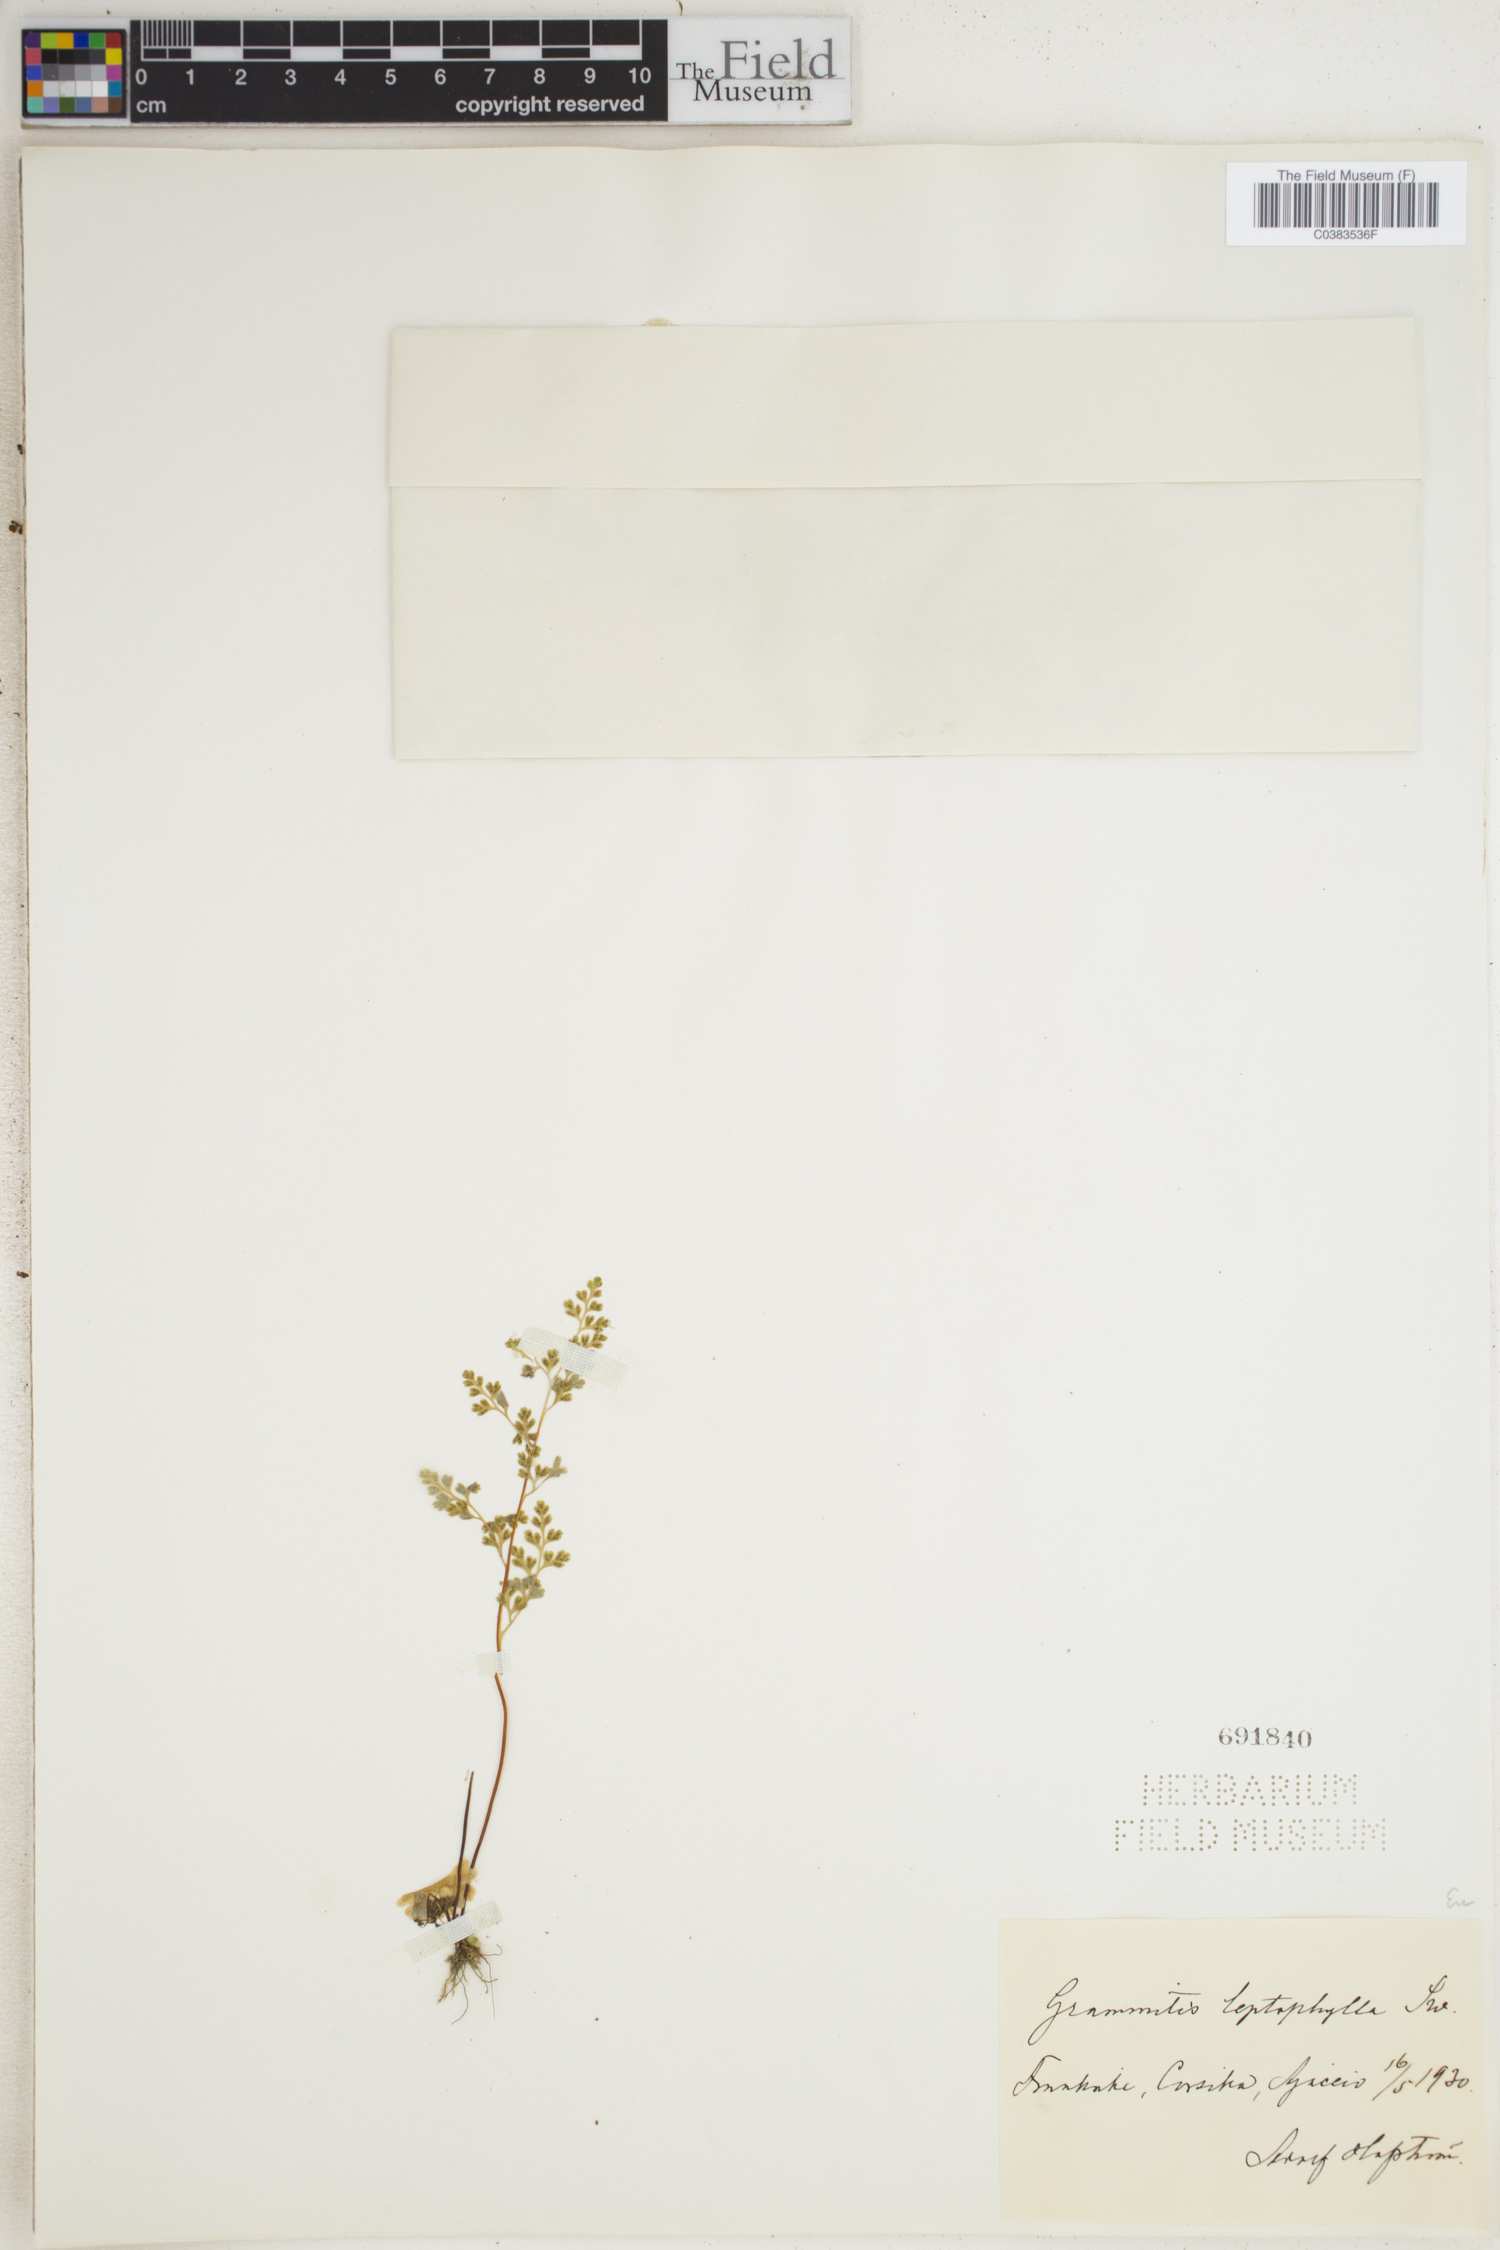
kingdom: Plantae
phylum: Tracheophyta
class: Polypodiopsida
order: Polypodiales
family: Pteridaceae
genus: Anogramma
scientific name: Anogramma leptophylla
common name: Jersey fern
